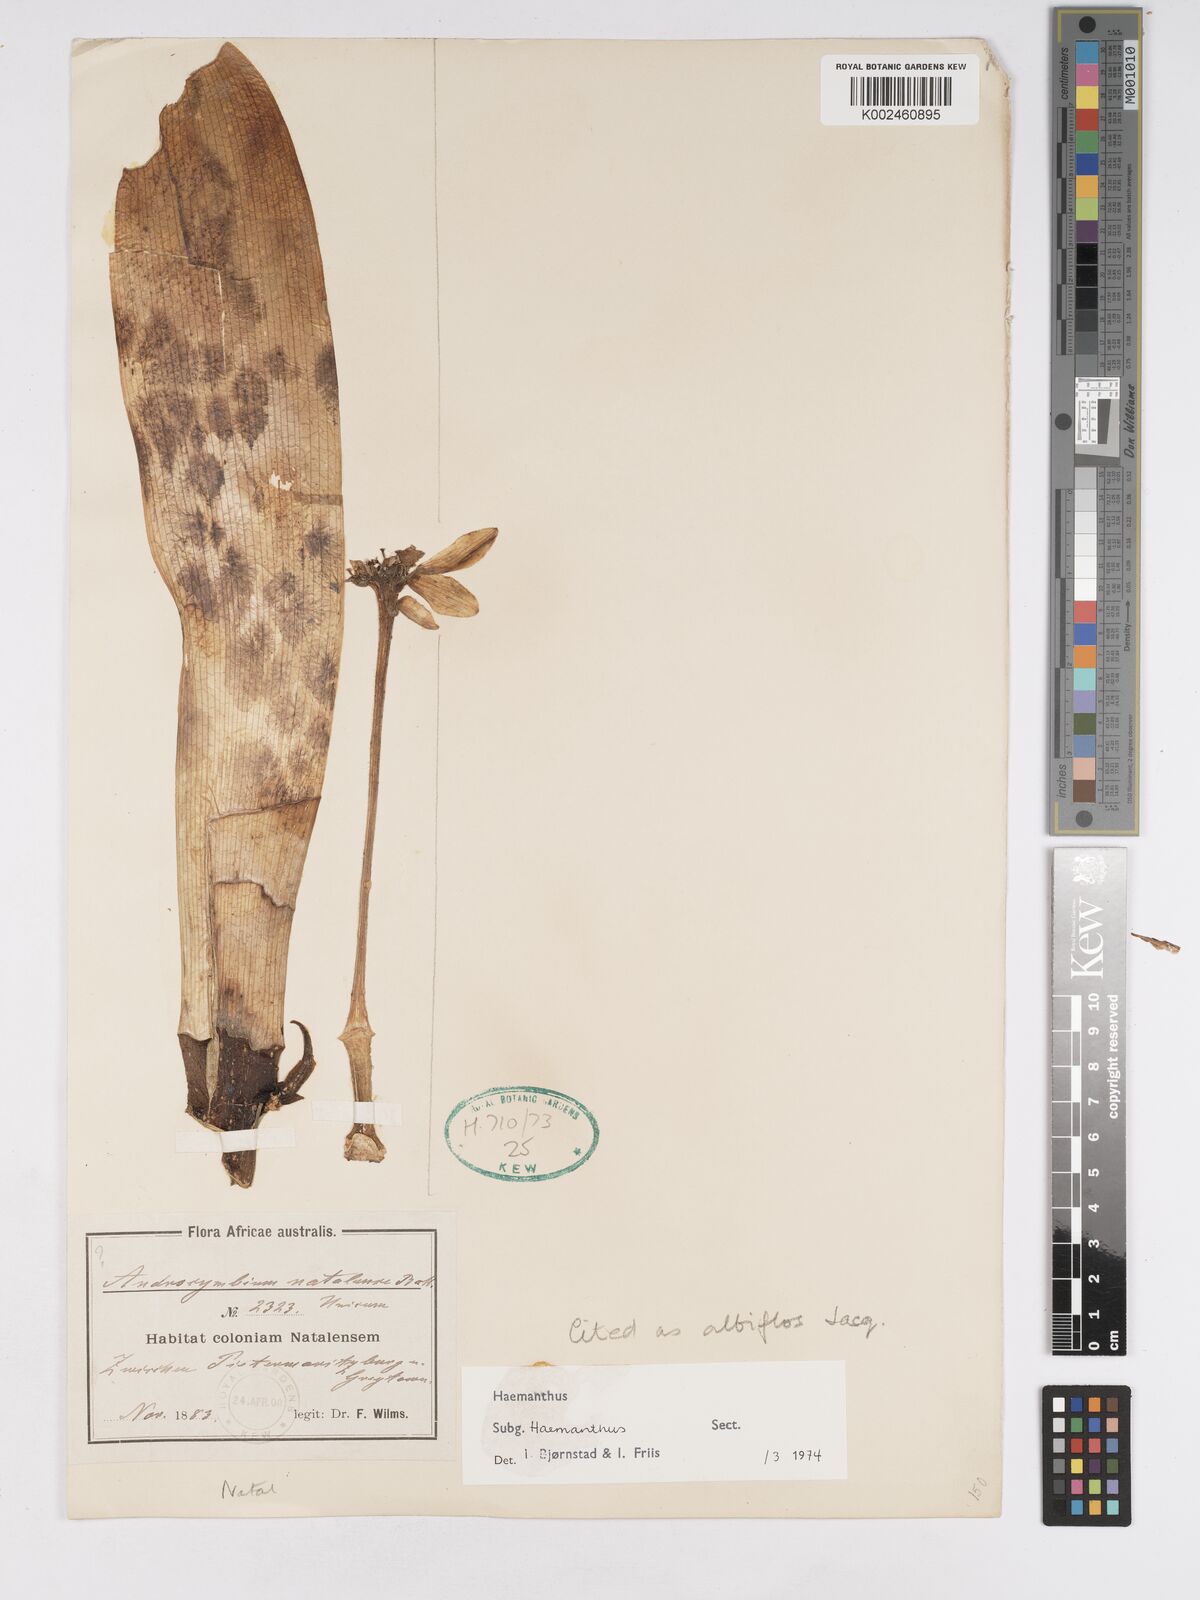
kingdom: Plantae
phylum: Tracheophyta
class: Liliopsida
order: Asparagales
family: Amaryllidaceae
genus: Haemanthus
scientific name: Haemanthus albiflos
